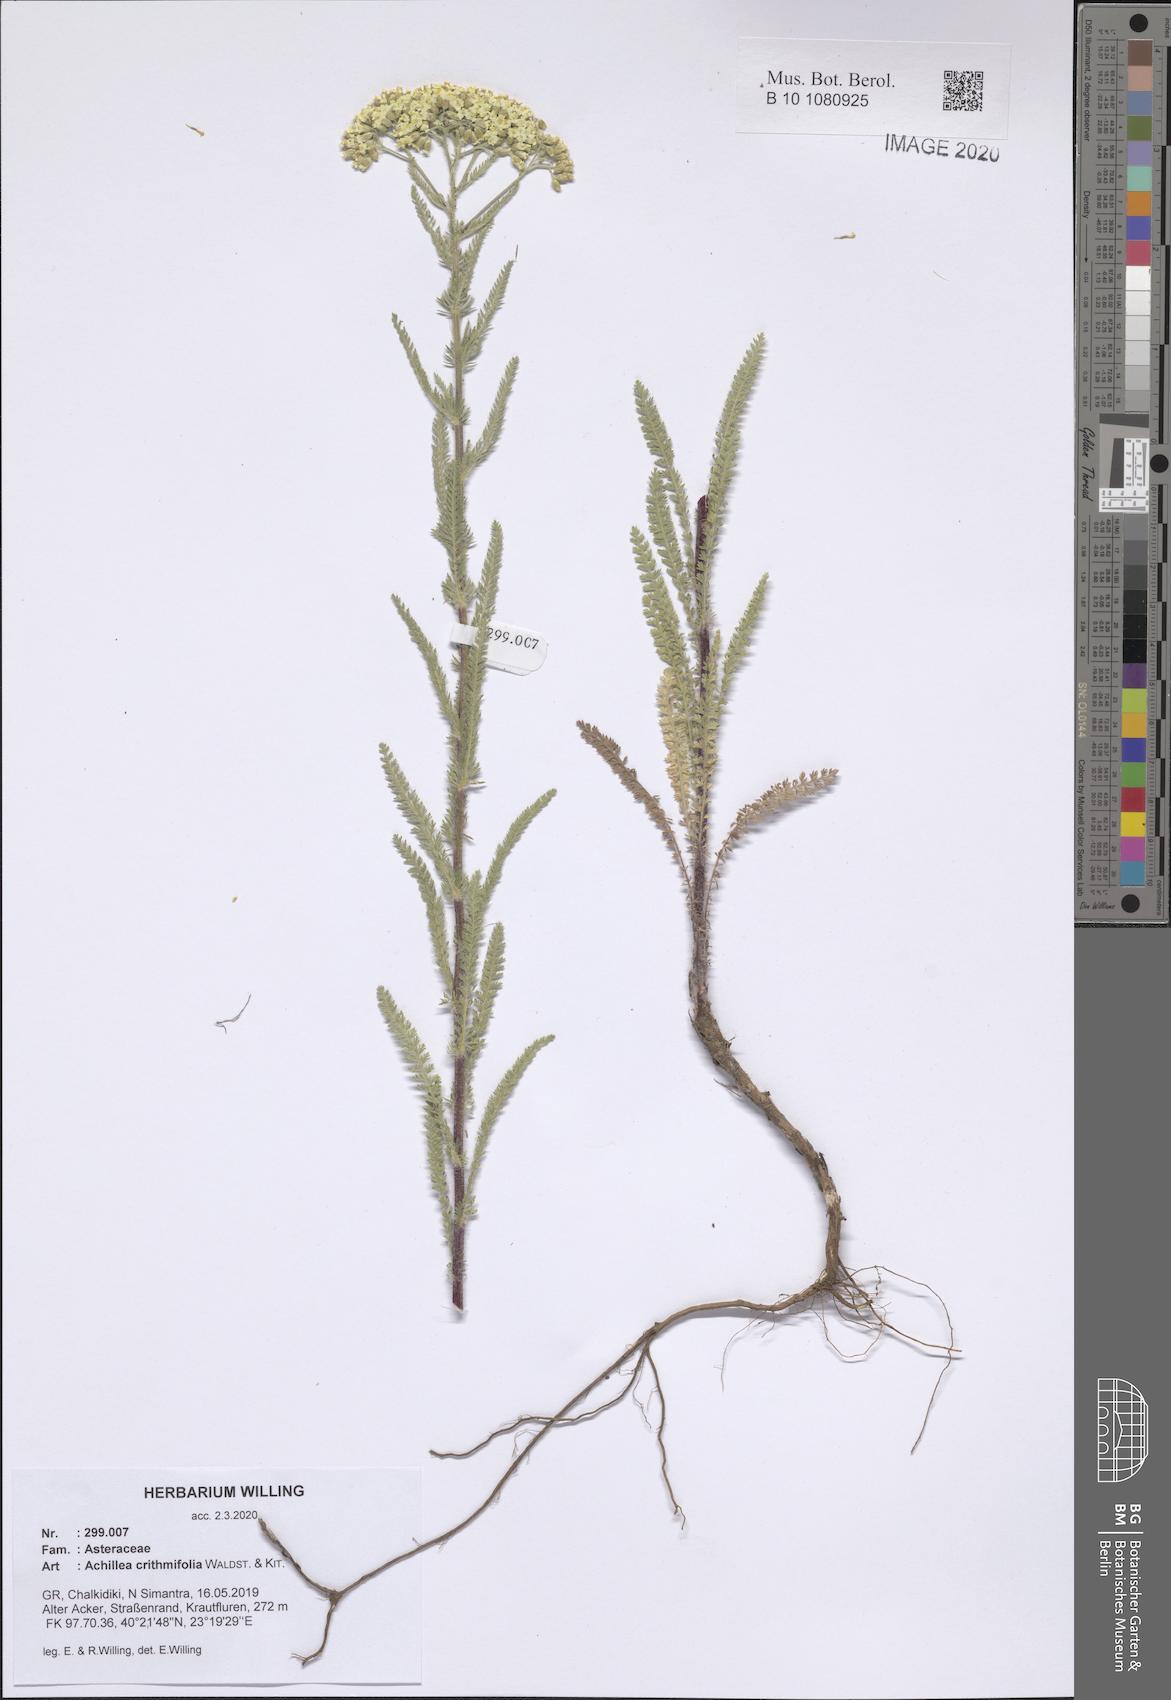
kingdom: Plantae
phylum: Tracheophyta
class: Magnoliopsida
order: Asterales
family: Asteraceae
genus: Achillea
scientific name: Achillea crithmifolia
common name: Yarrow
